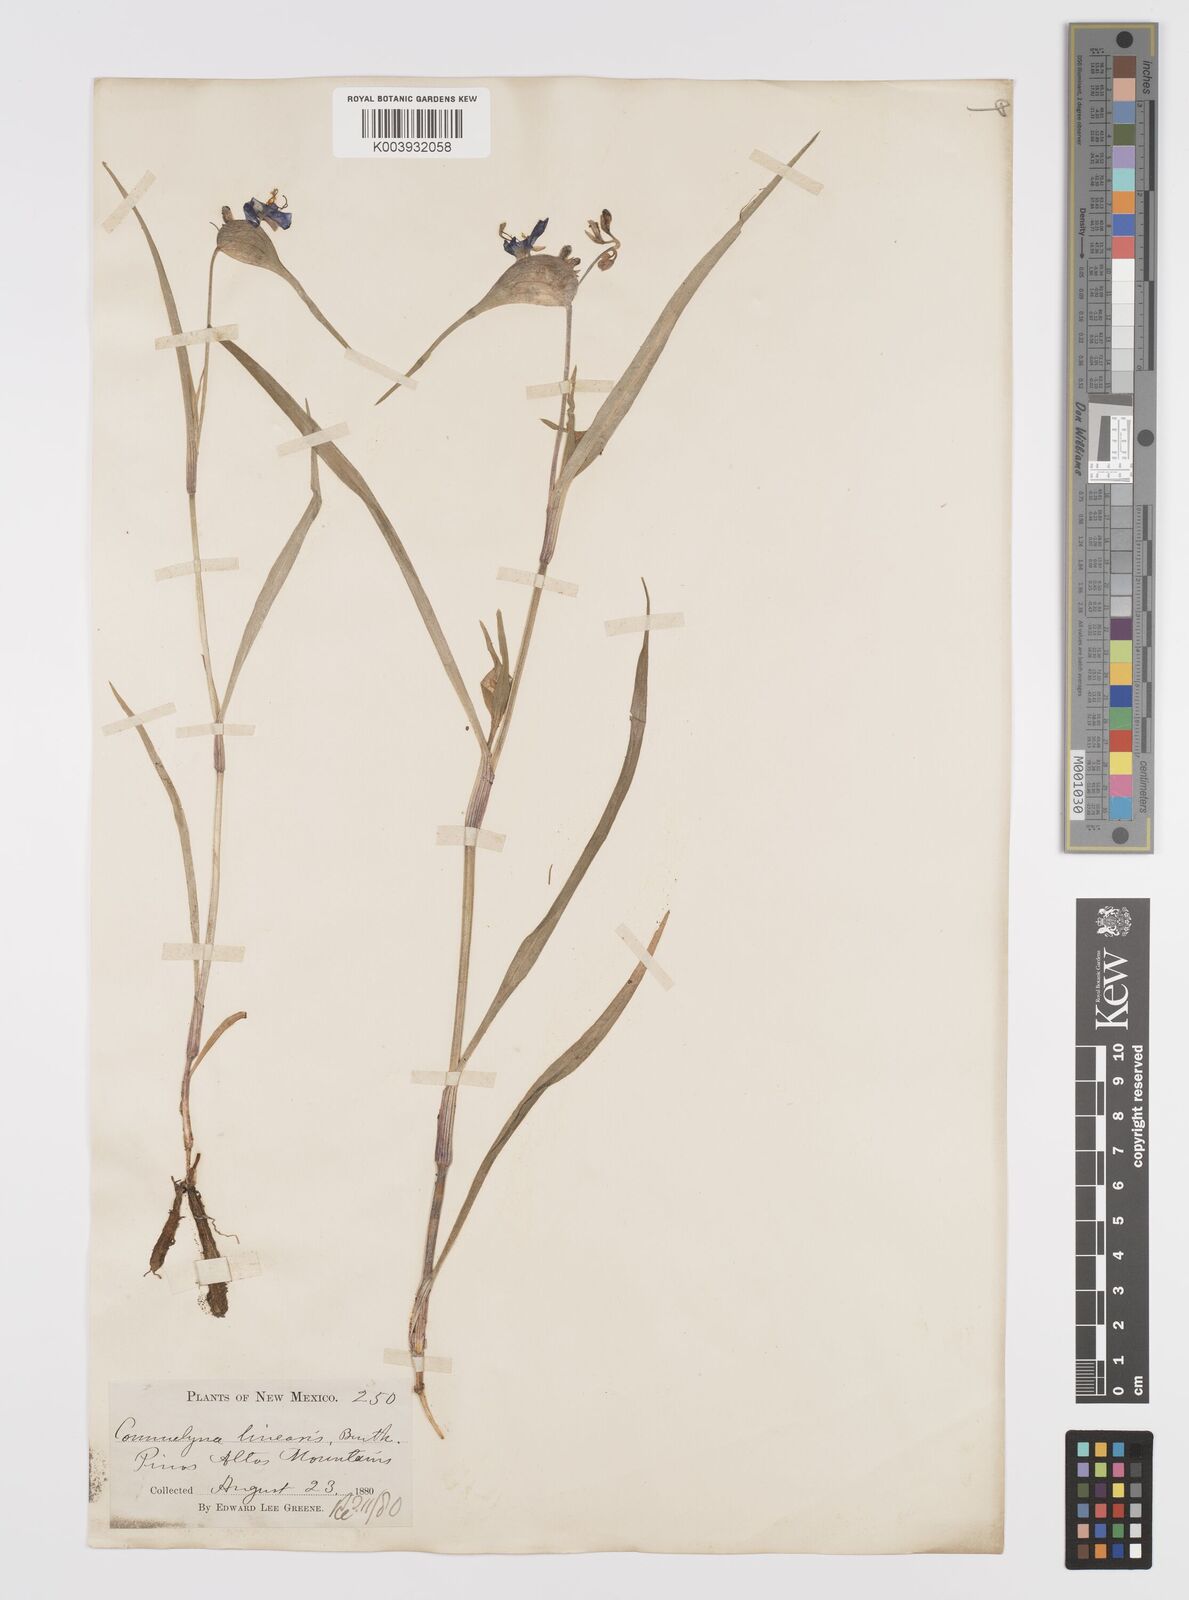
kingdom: Plantae
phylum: Tracheophyta
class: Liliopsida
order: Commelinales
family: Commelinaceae
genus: Commelina
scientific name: Commelina dianthifolia
